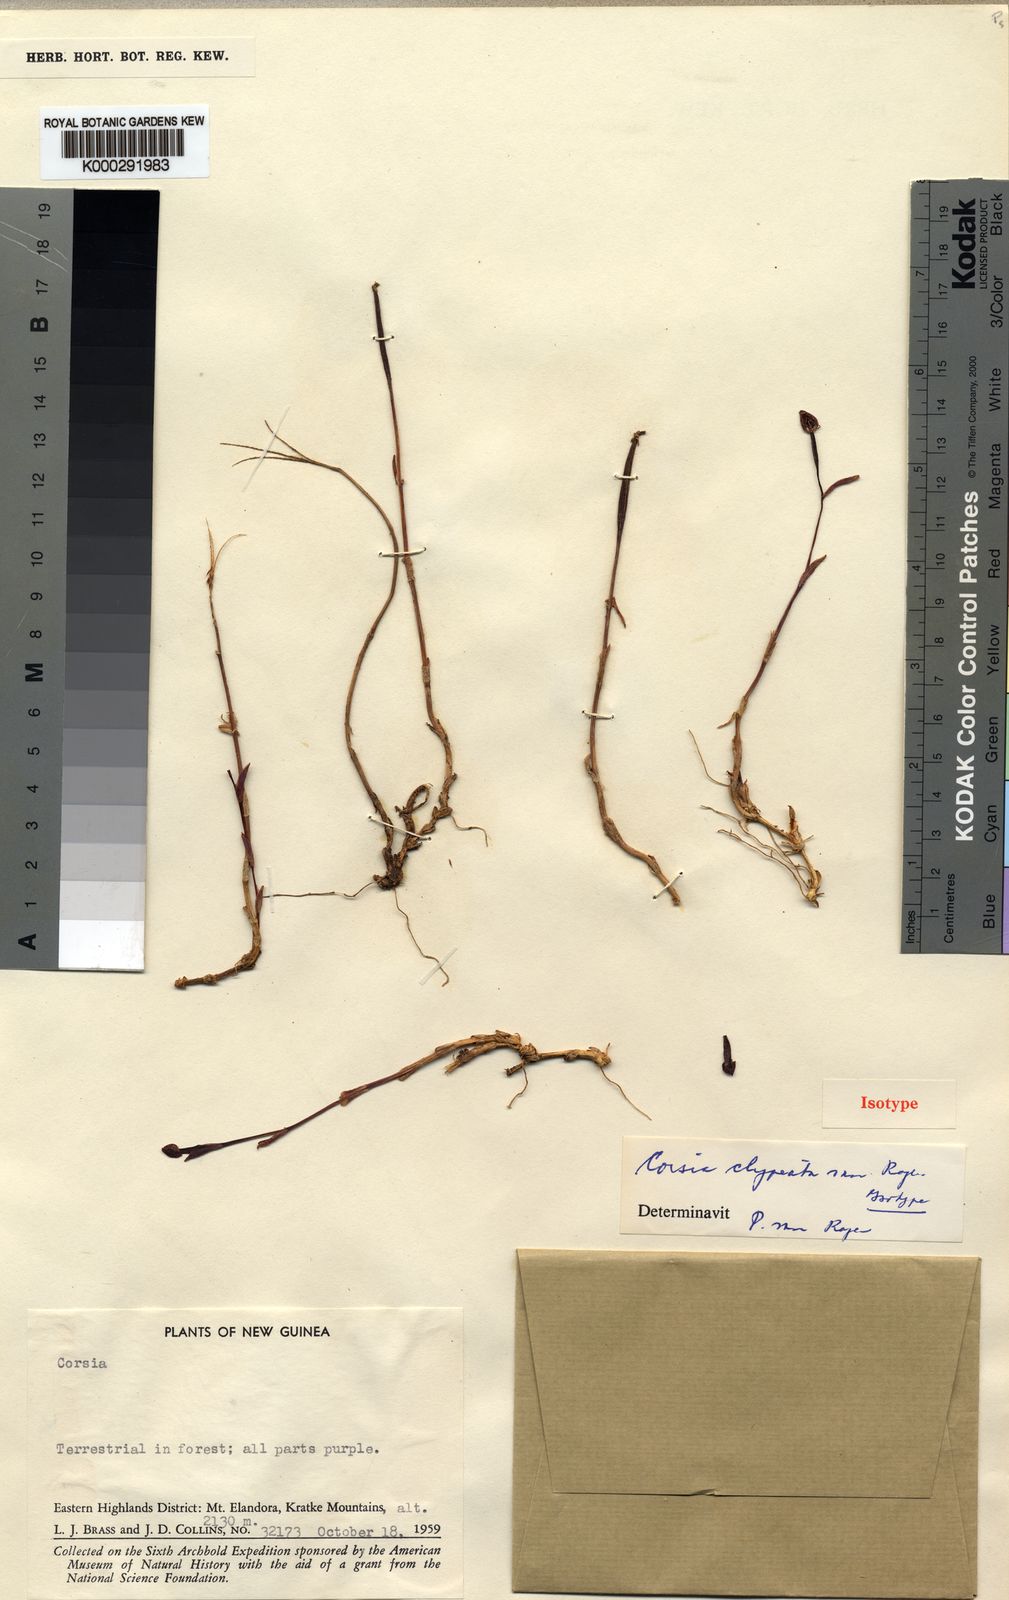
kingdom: Plantae
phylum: Tracheophyta
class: Liliopsida
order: Liliales
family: Corsiaceae
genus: Corsia
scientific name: Corsia clypeata
